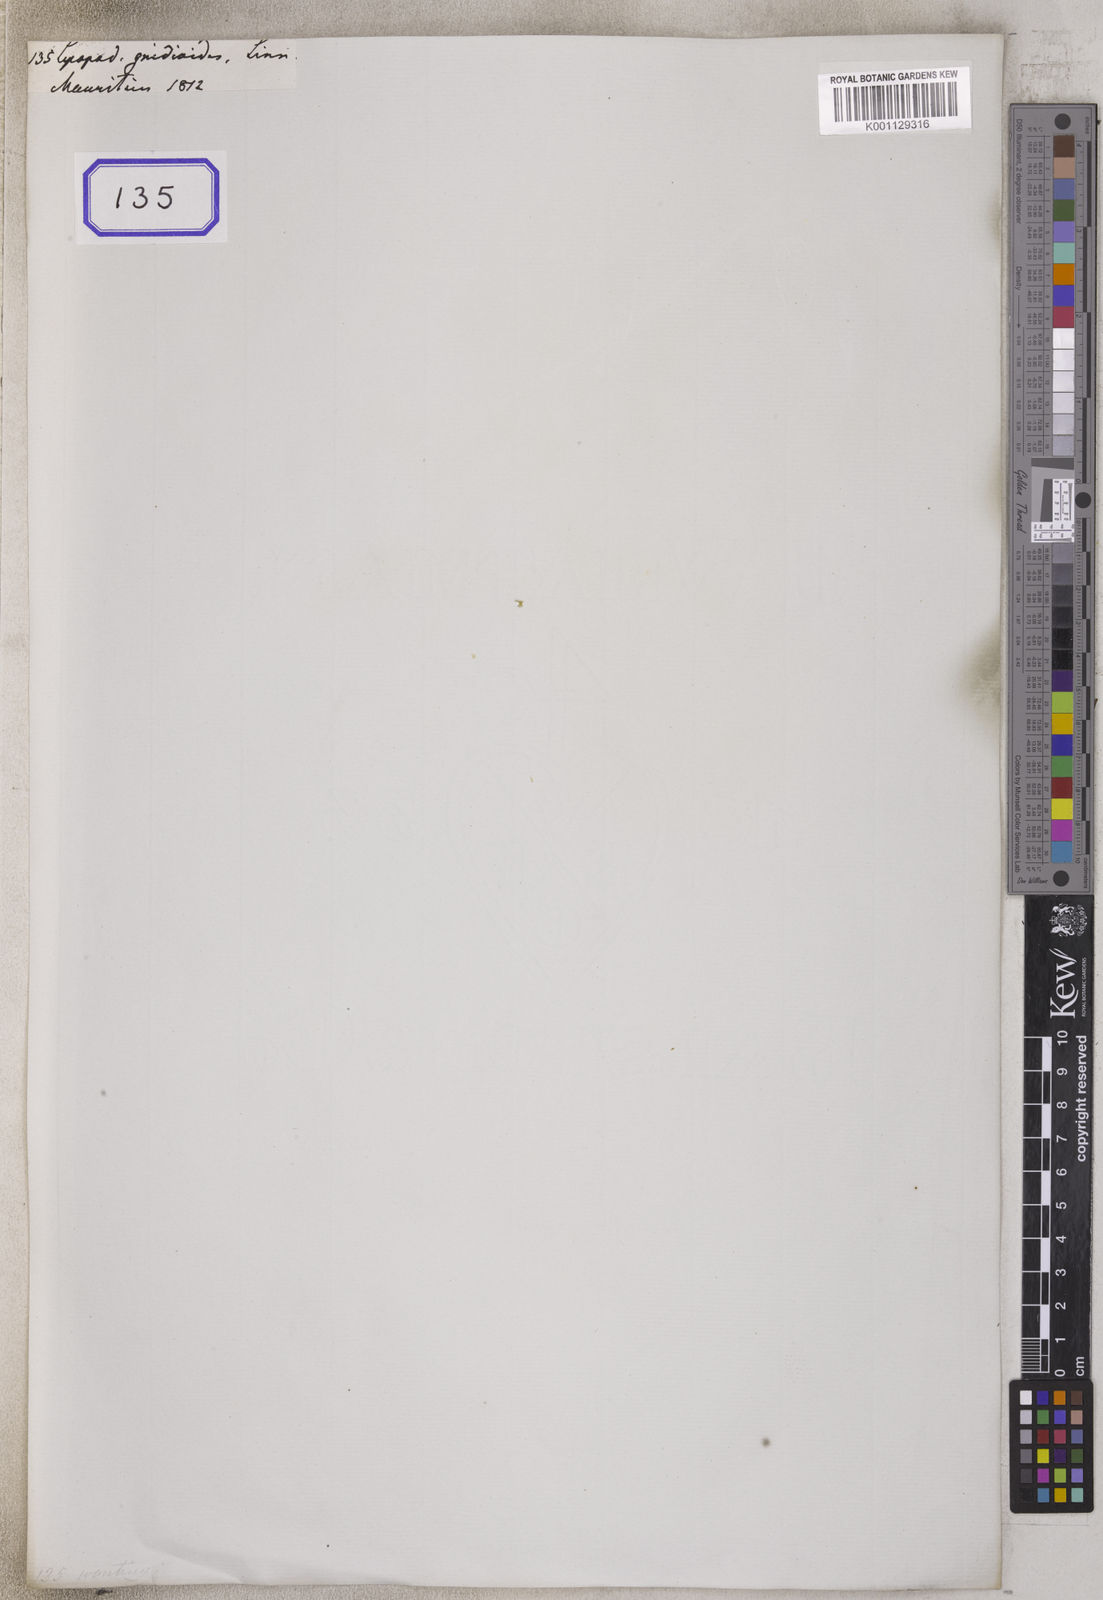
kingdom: Plantae
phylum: Tracheophyta
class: Lycopodiopsida
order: Lycopodiales
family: Lycopodiaceae
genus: Phlegmariurus
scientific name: Phlegmariurus gnidioides
